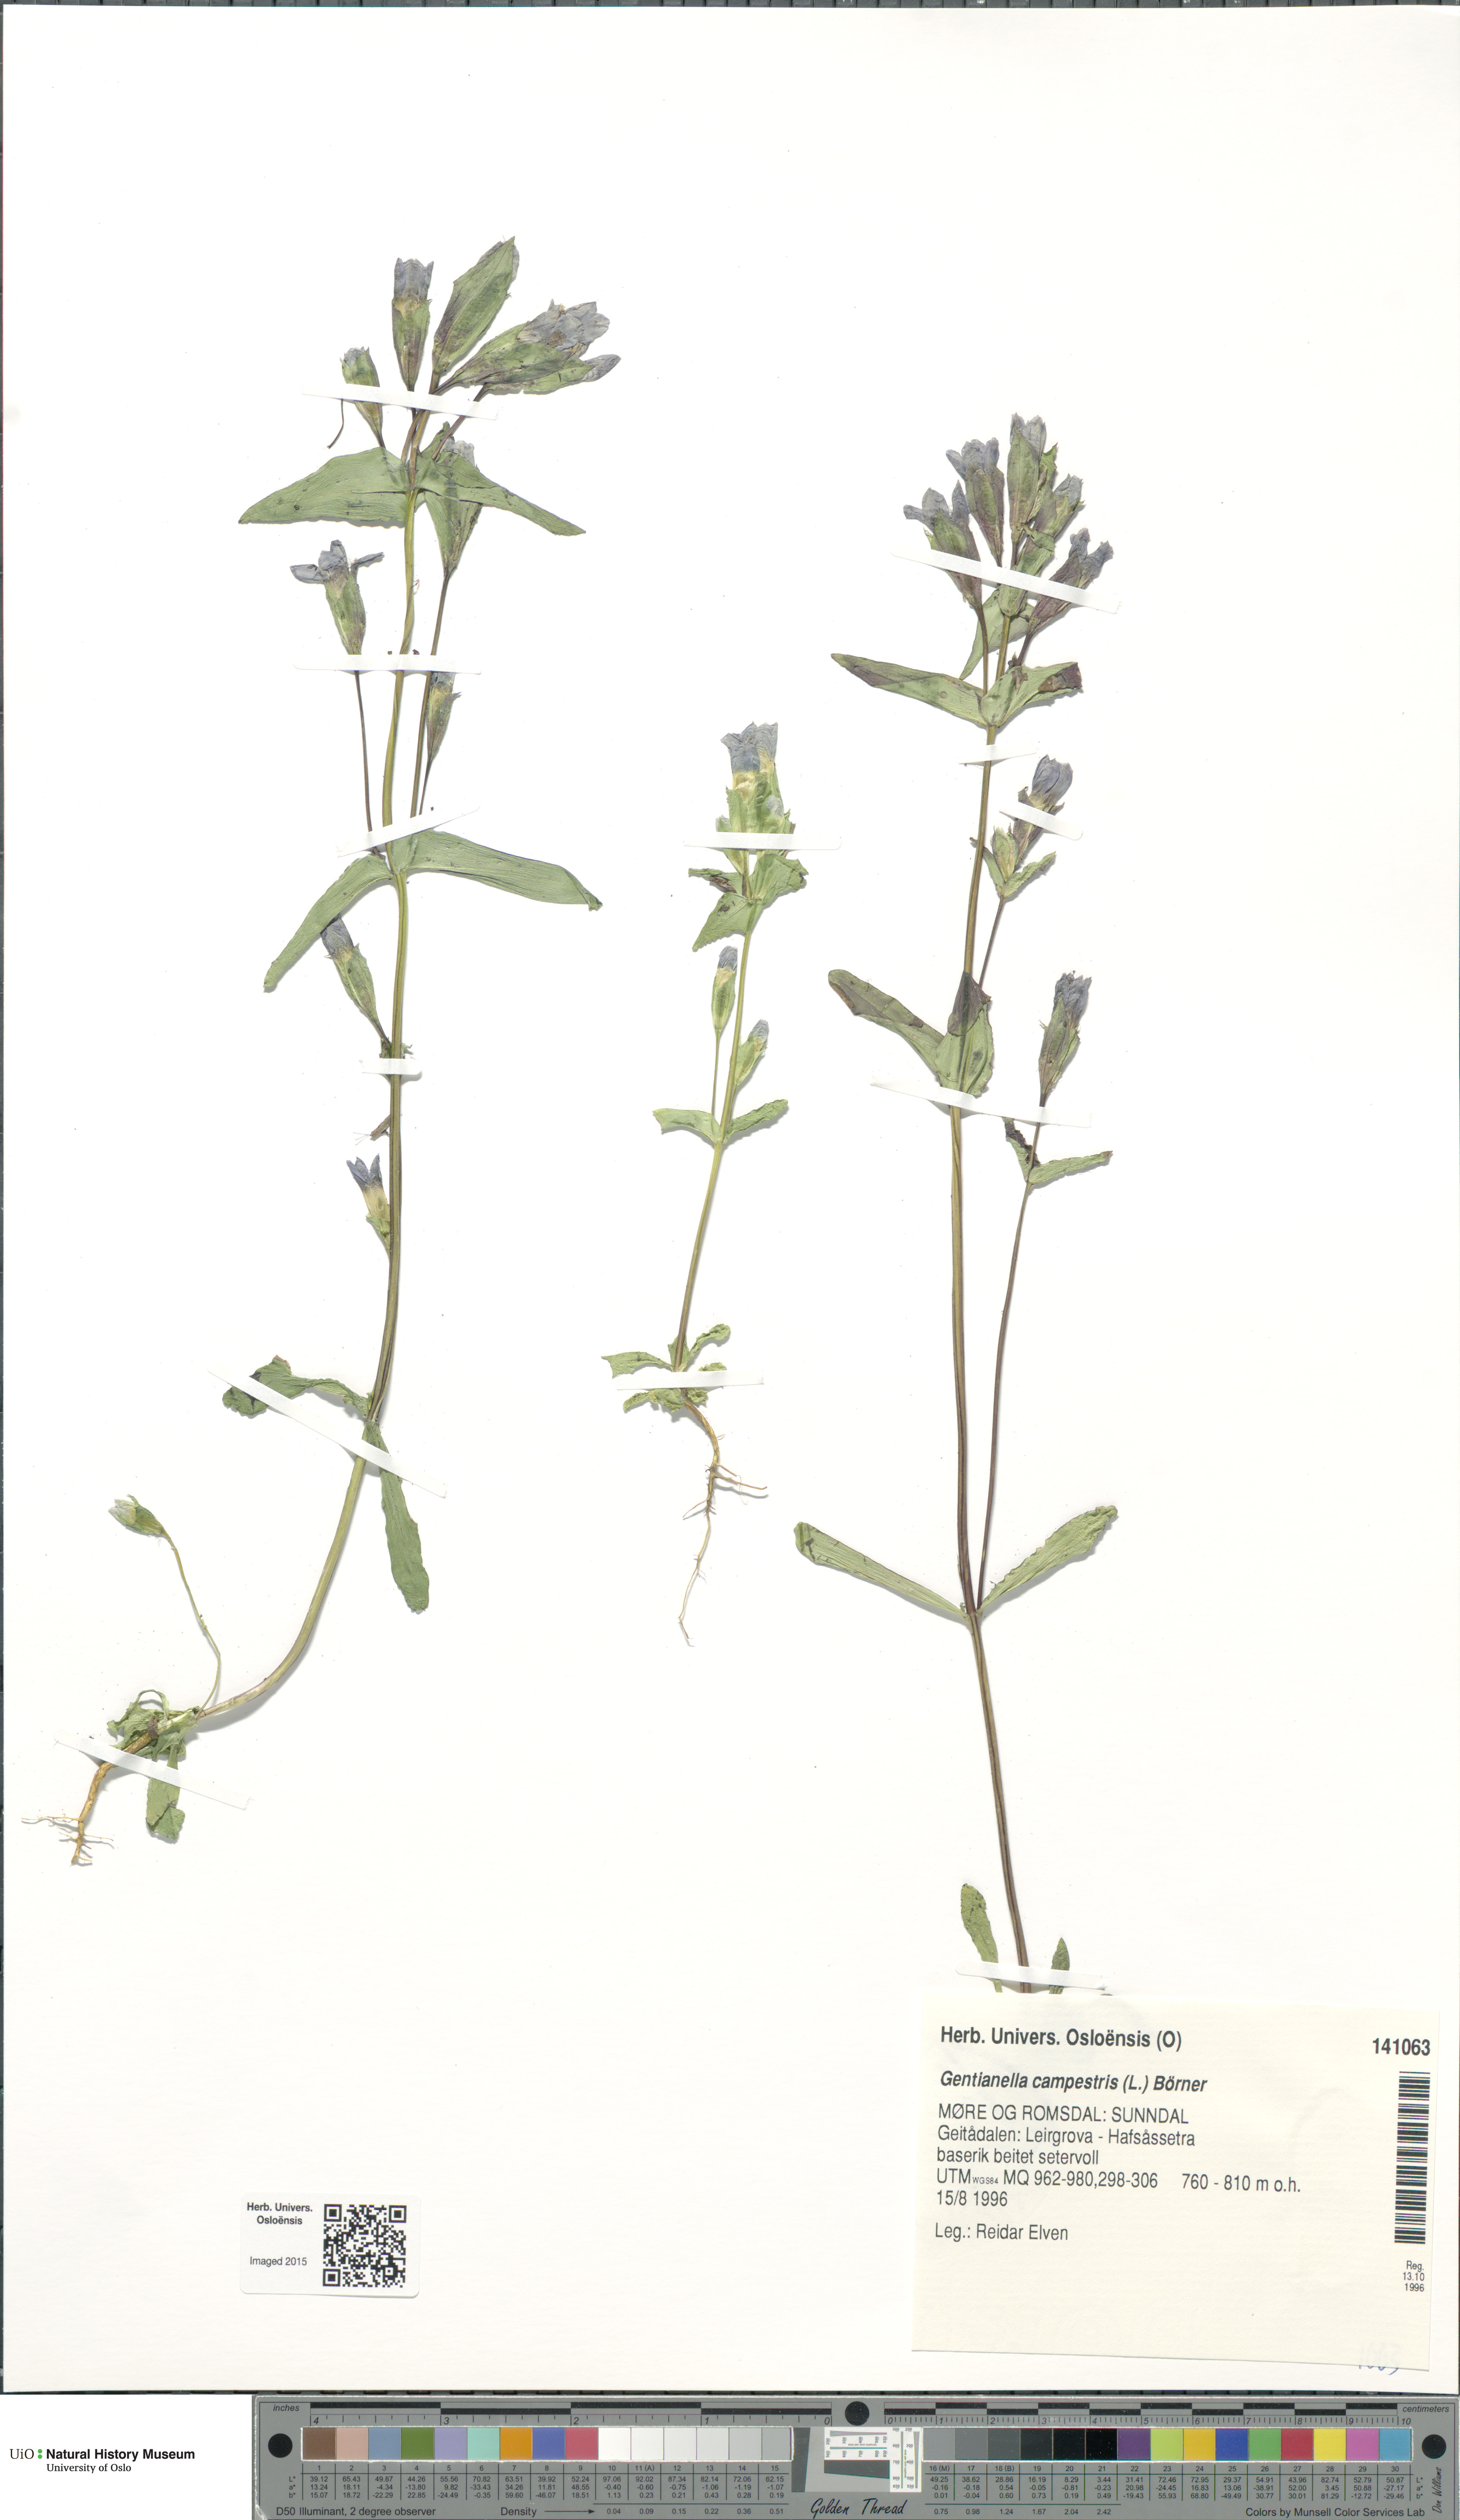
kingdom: Plantae
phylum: Tracheophyta
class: Magnoliopsida
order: Gentianales
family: Gentianaceae
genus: Gentianella
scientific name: Gentianella campestris
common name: Field gentian
